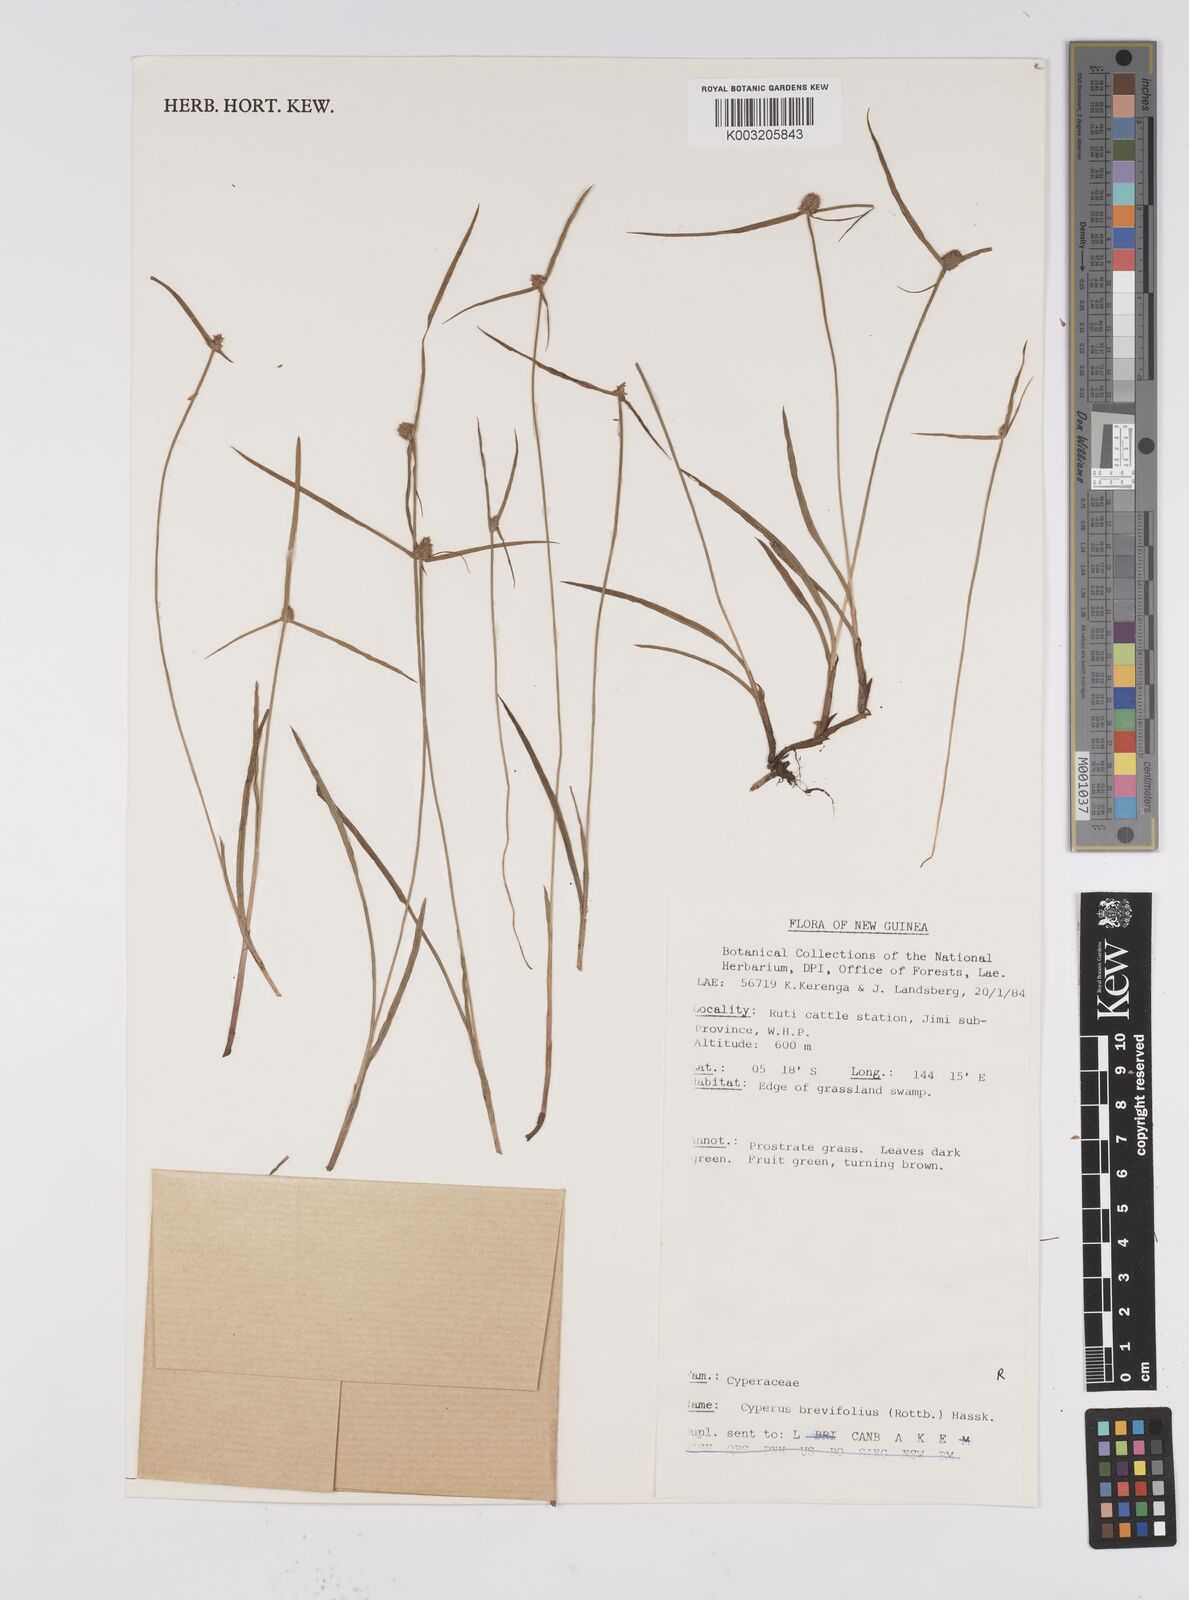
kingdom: Plantae
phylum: Tracheophyta
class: Liliopsida
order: Poales
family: Cyperaceae
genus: Cyperus
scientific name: Cyperus brevifolius
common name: Globe kyllinga
